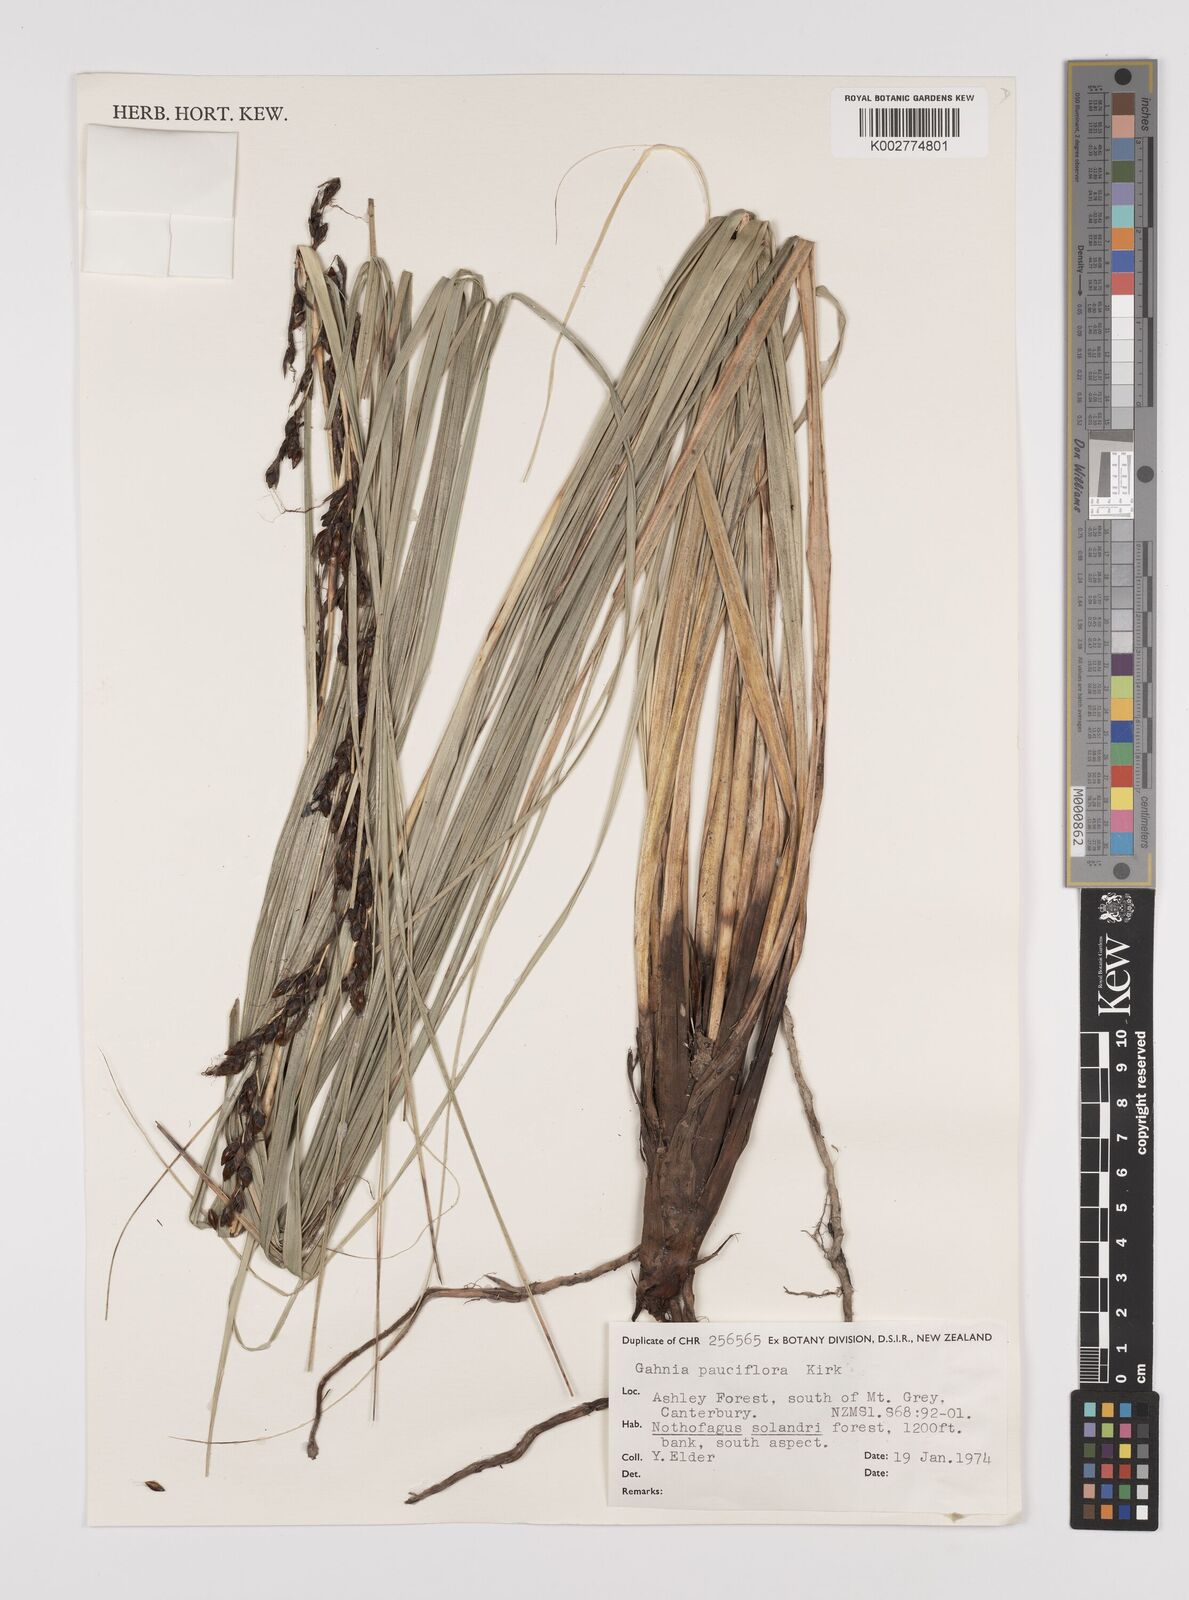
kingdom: Plantae
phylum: Tracheophyta
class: Liliopsida
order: Poales
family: Cyperaceae
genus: Gahnia
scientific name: Gahnia pauciflora
